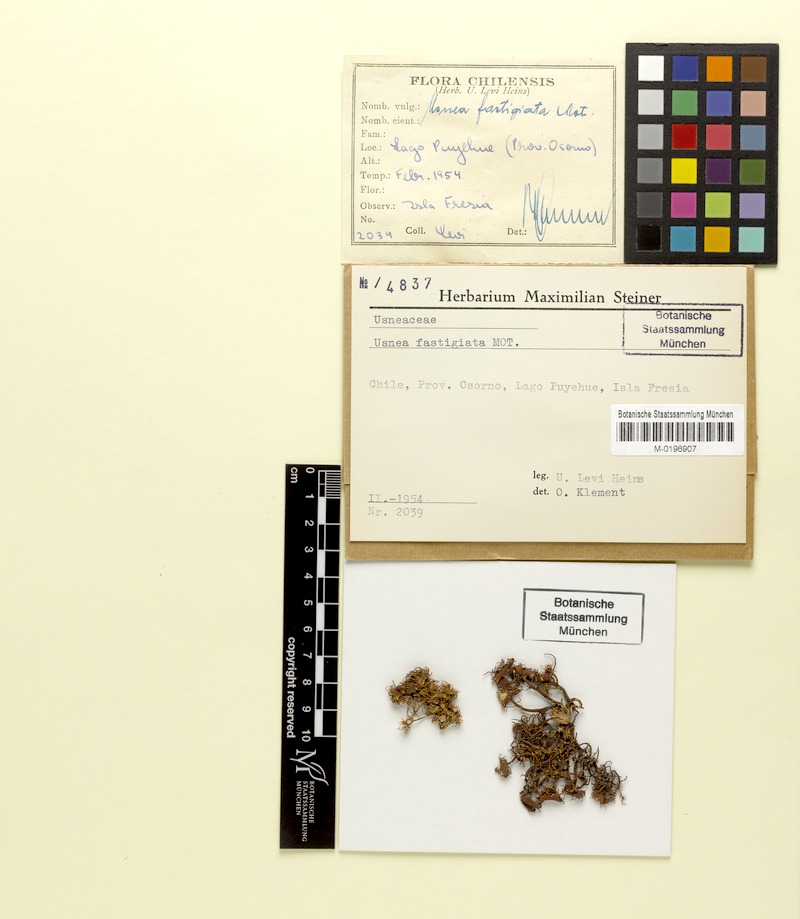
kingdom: Fungi
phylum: Ascomycota
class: Lecanoromycetes
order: Lecanorales
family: Parmeliaceae
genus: Usnea
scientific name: Usnea fastigiata
